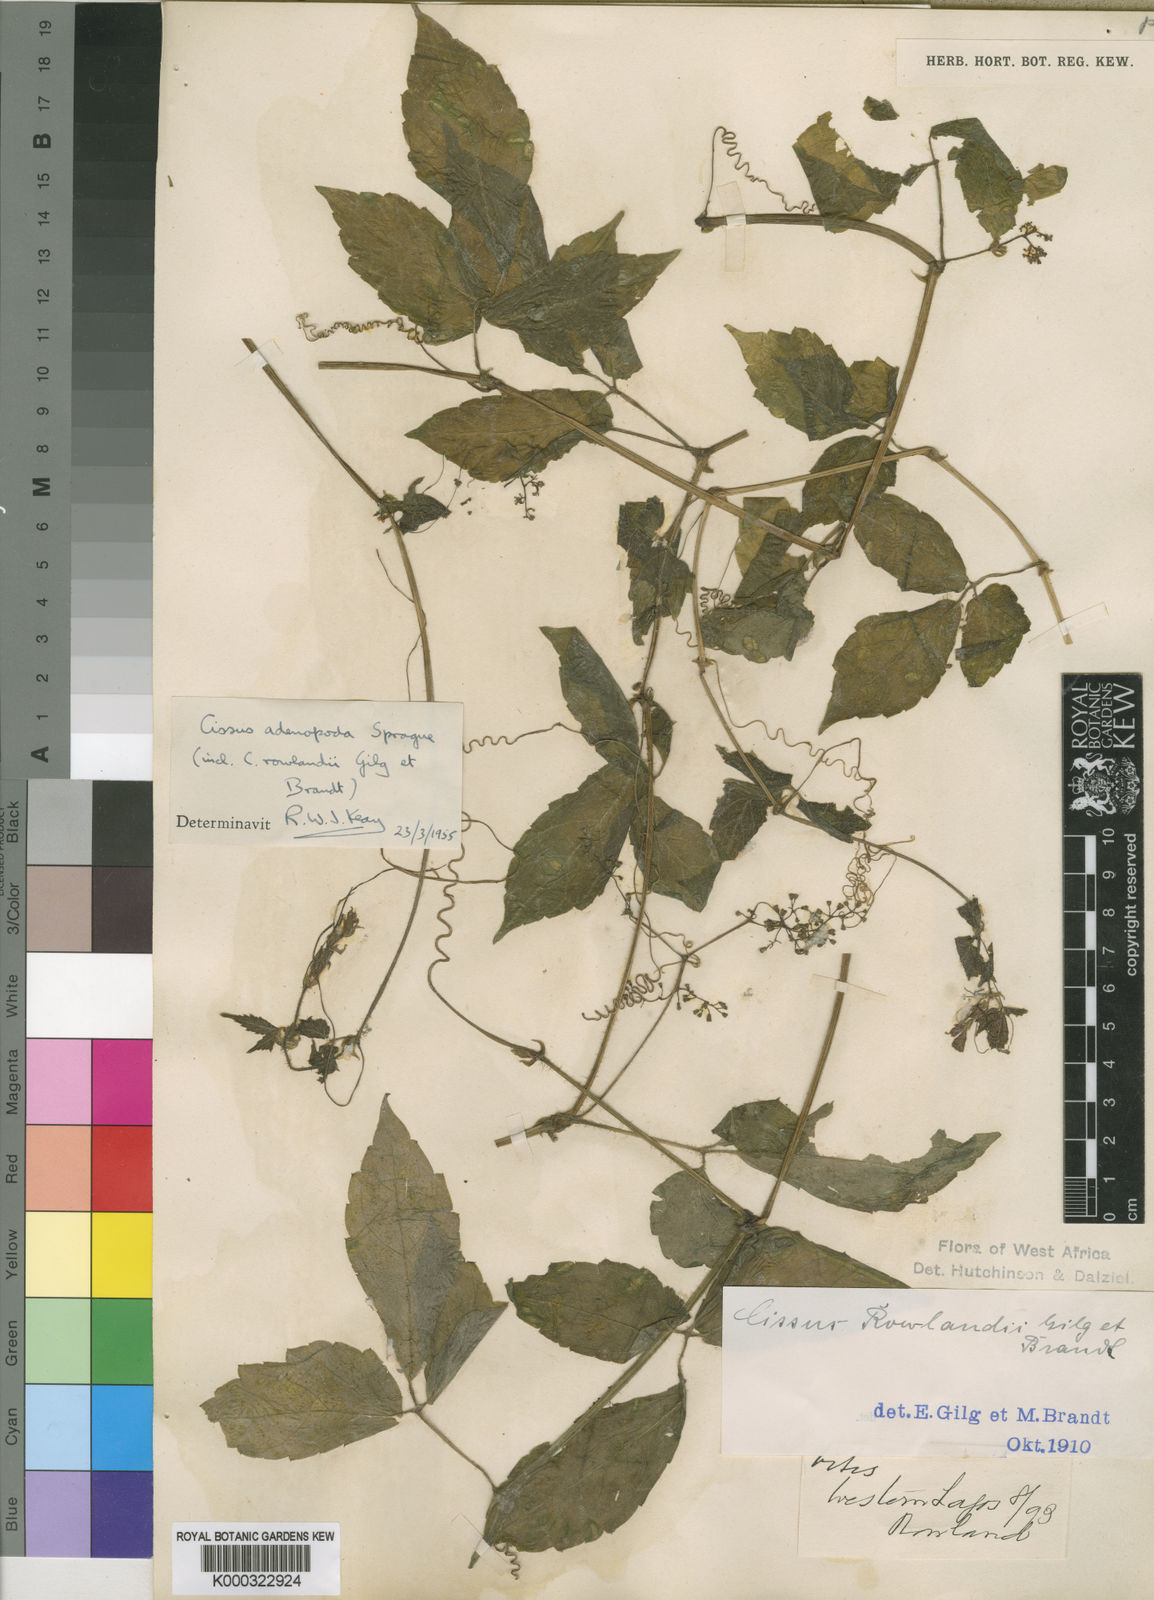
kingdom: Plantae
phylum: Tracheophyta
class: Magnoliopsida
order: Vitales
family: Vitaceae
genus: Cyphostemma
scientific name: Cyphostemma adenopodum
